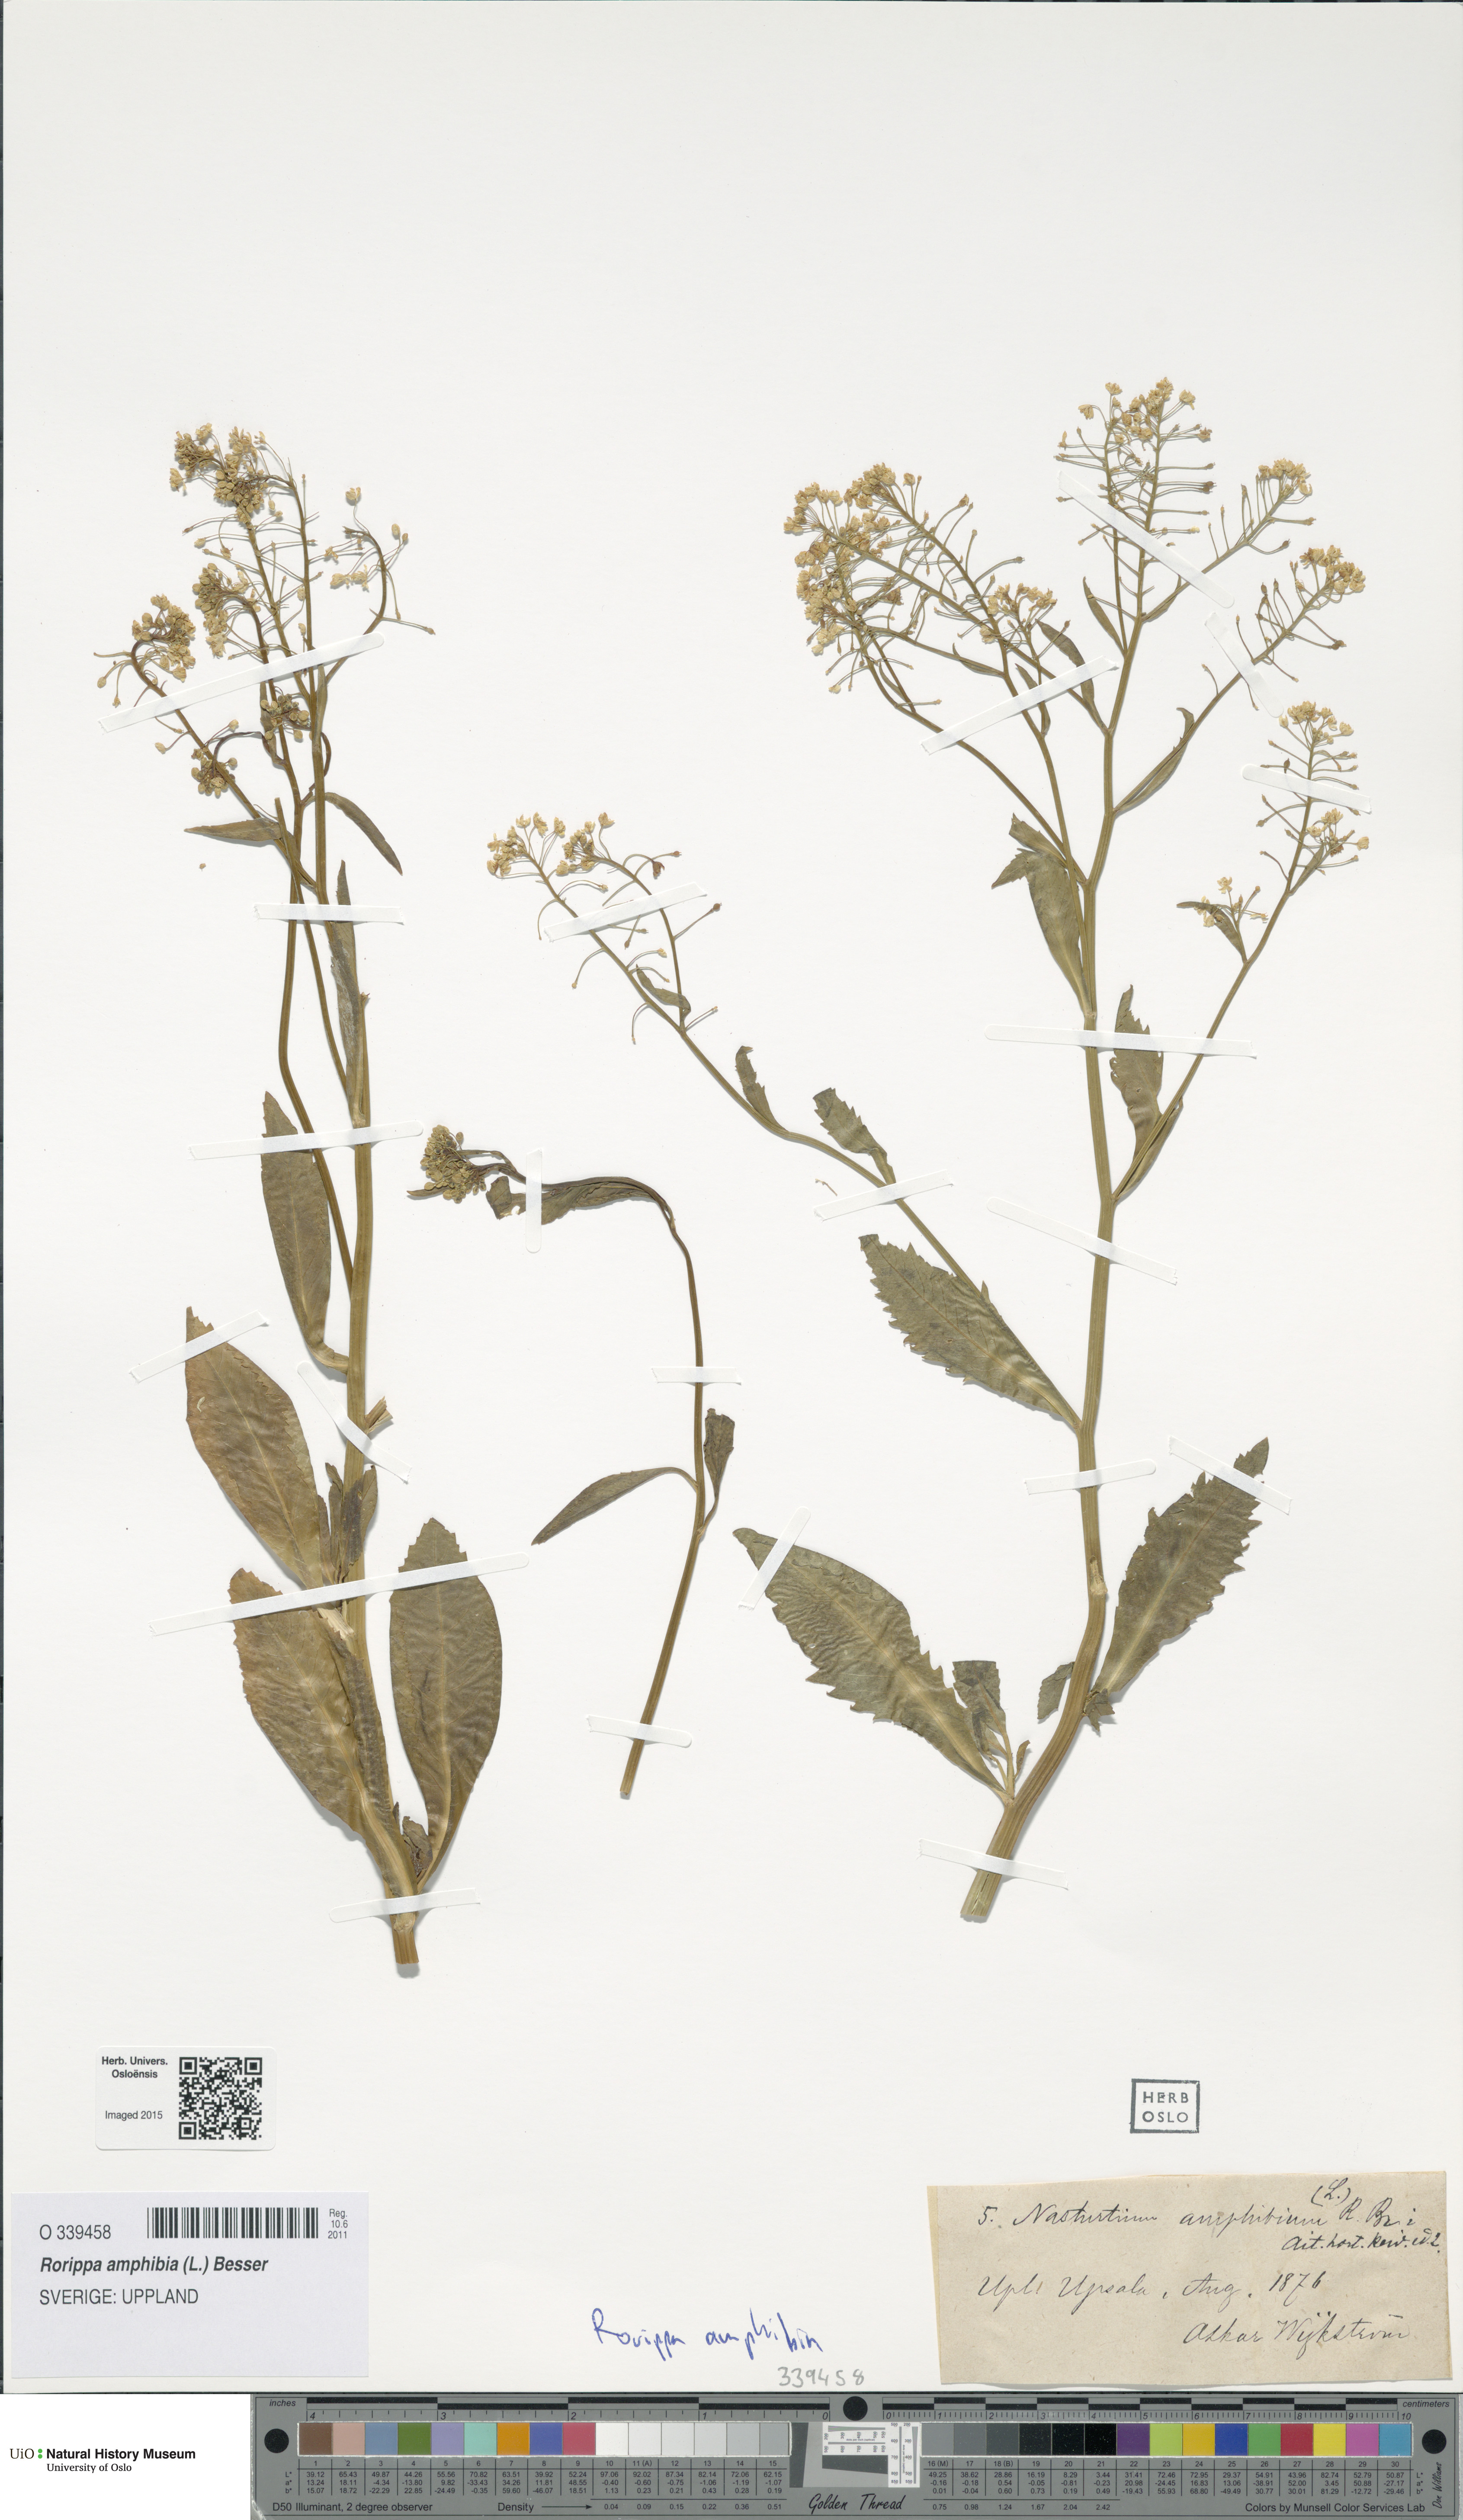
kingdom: Plantae
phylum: Tracheophyta
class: Magnoliopsida
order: Brassicales
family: Brassicaceae
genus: Rorippa
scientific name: Rorippa amphibia
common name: Great yellow-cress
